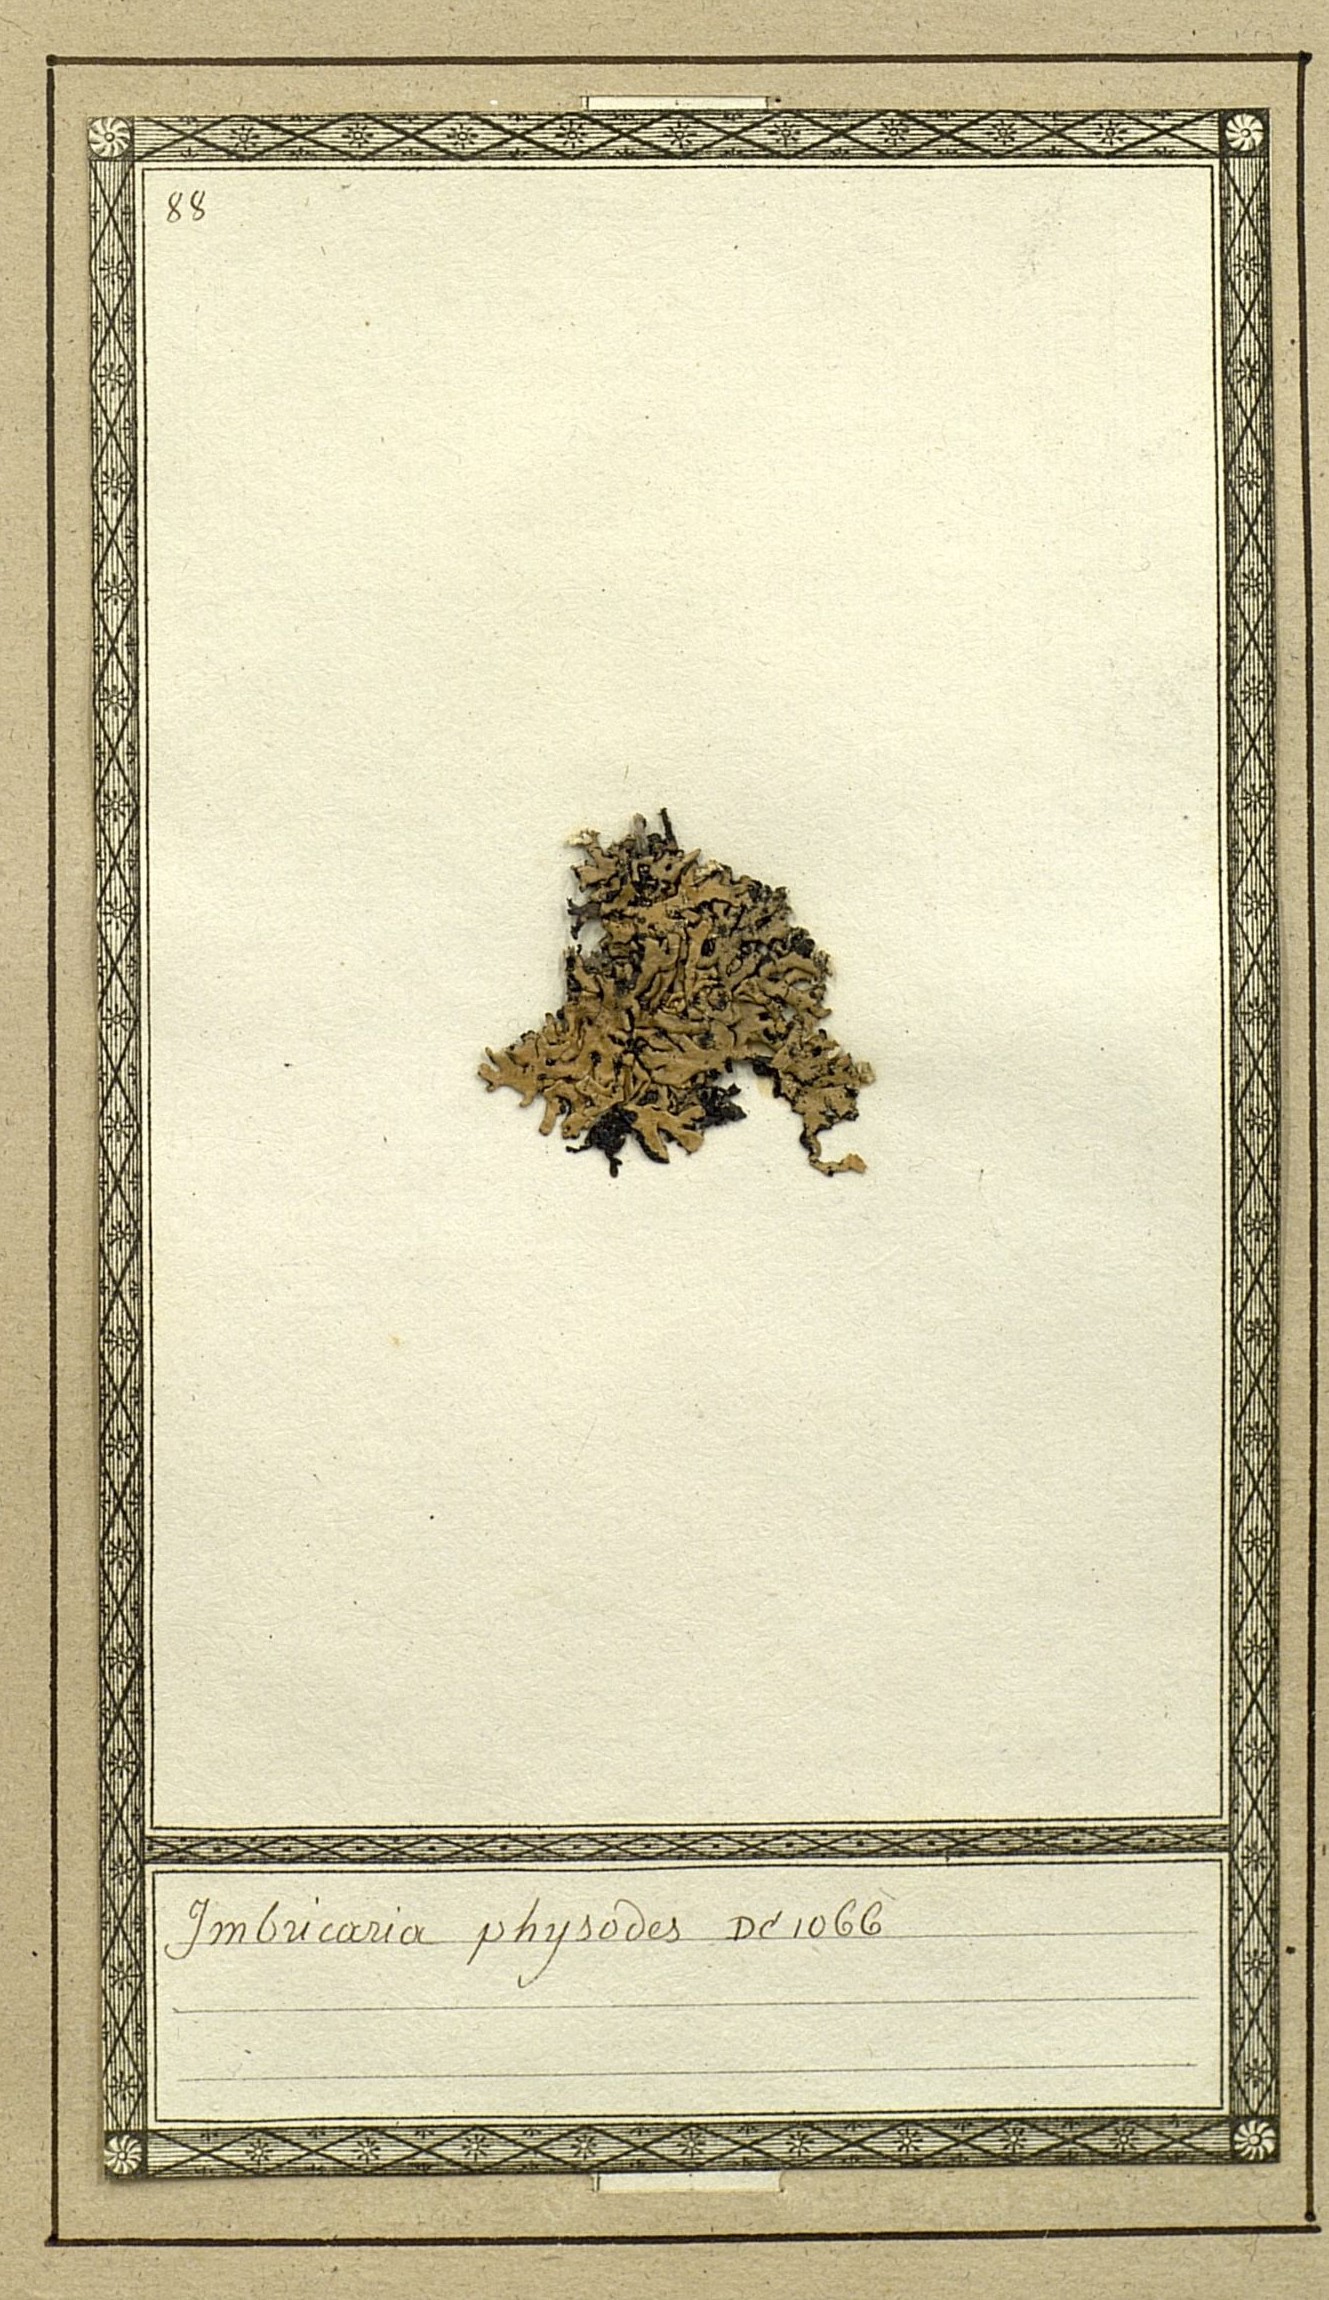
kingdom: Fungi
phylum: Ascomycota
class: Lecanoromycetes
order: Lecanorales
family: Parmeliaceae
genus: Hypogymnia
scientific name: Hypogymnia physodes
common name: Dark crottle
